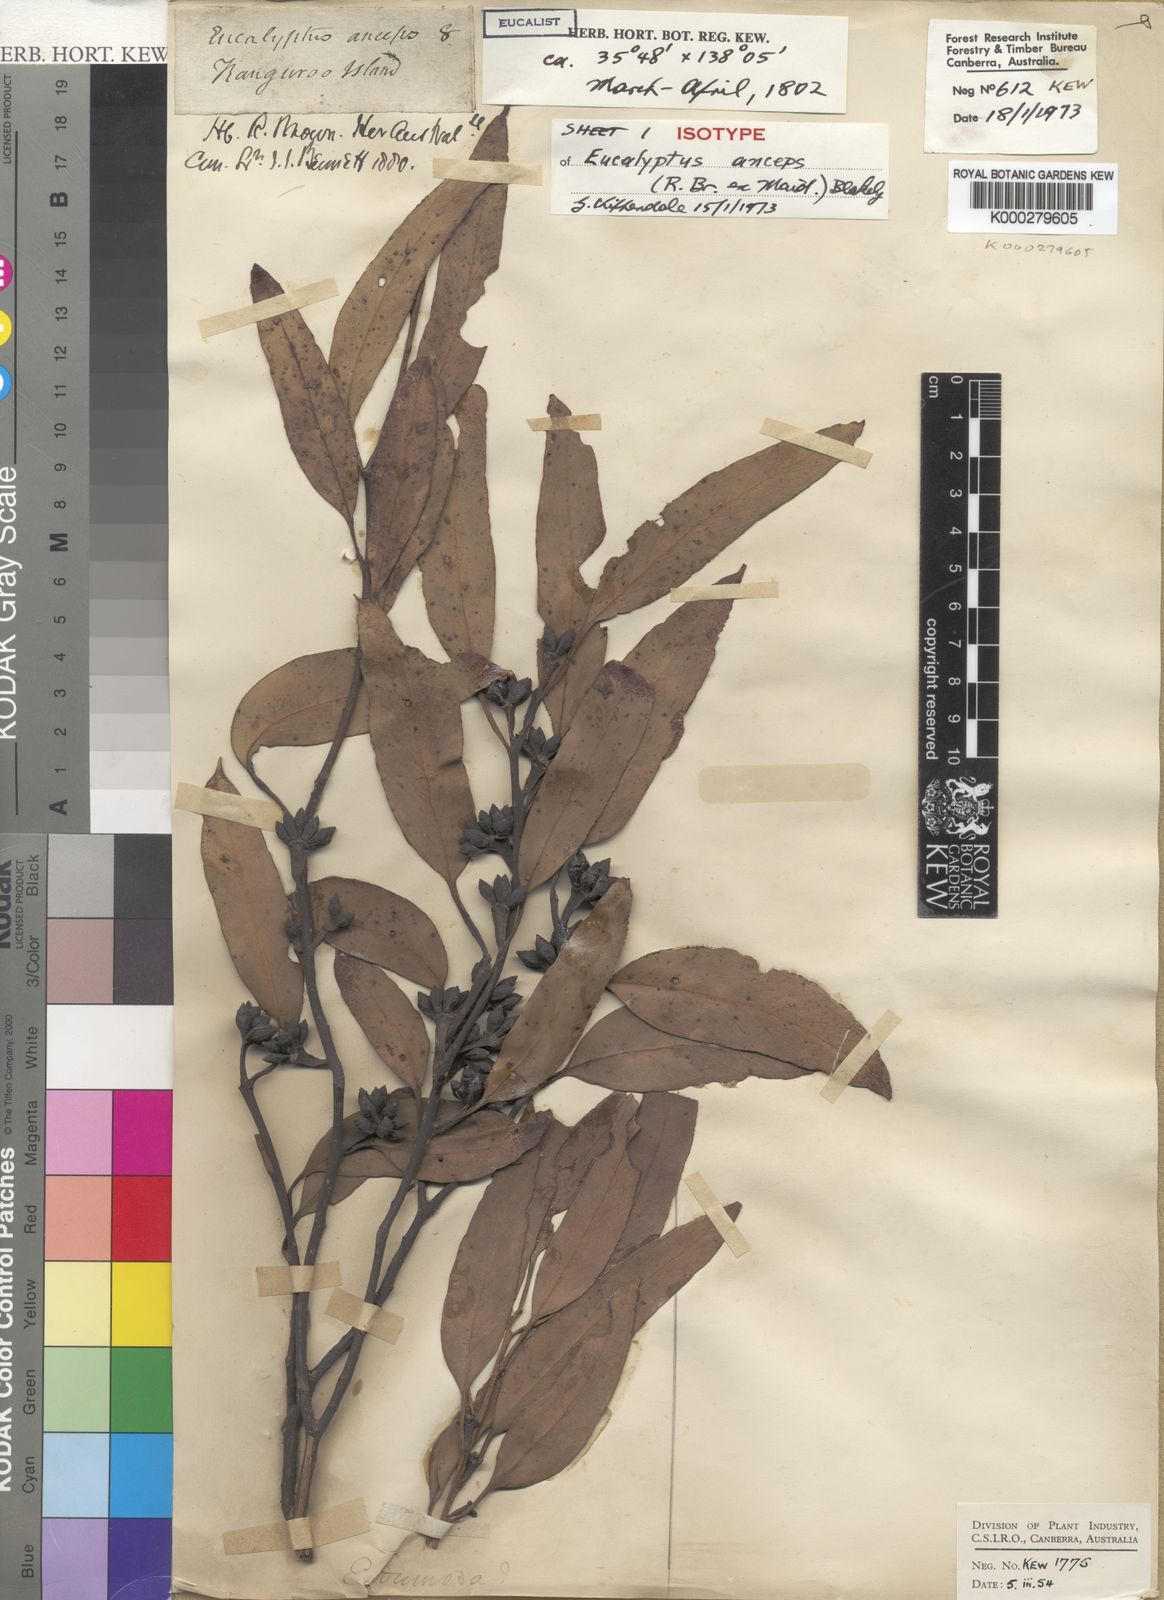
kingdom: Plantae
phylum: Tracheophyta
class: Magnoliopsida
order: Myrtales
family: Myrtaceae
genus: Eucalyptus
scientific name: Eucalyptus anceps
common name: Kangaroo island mallee
